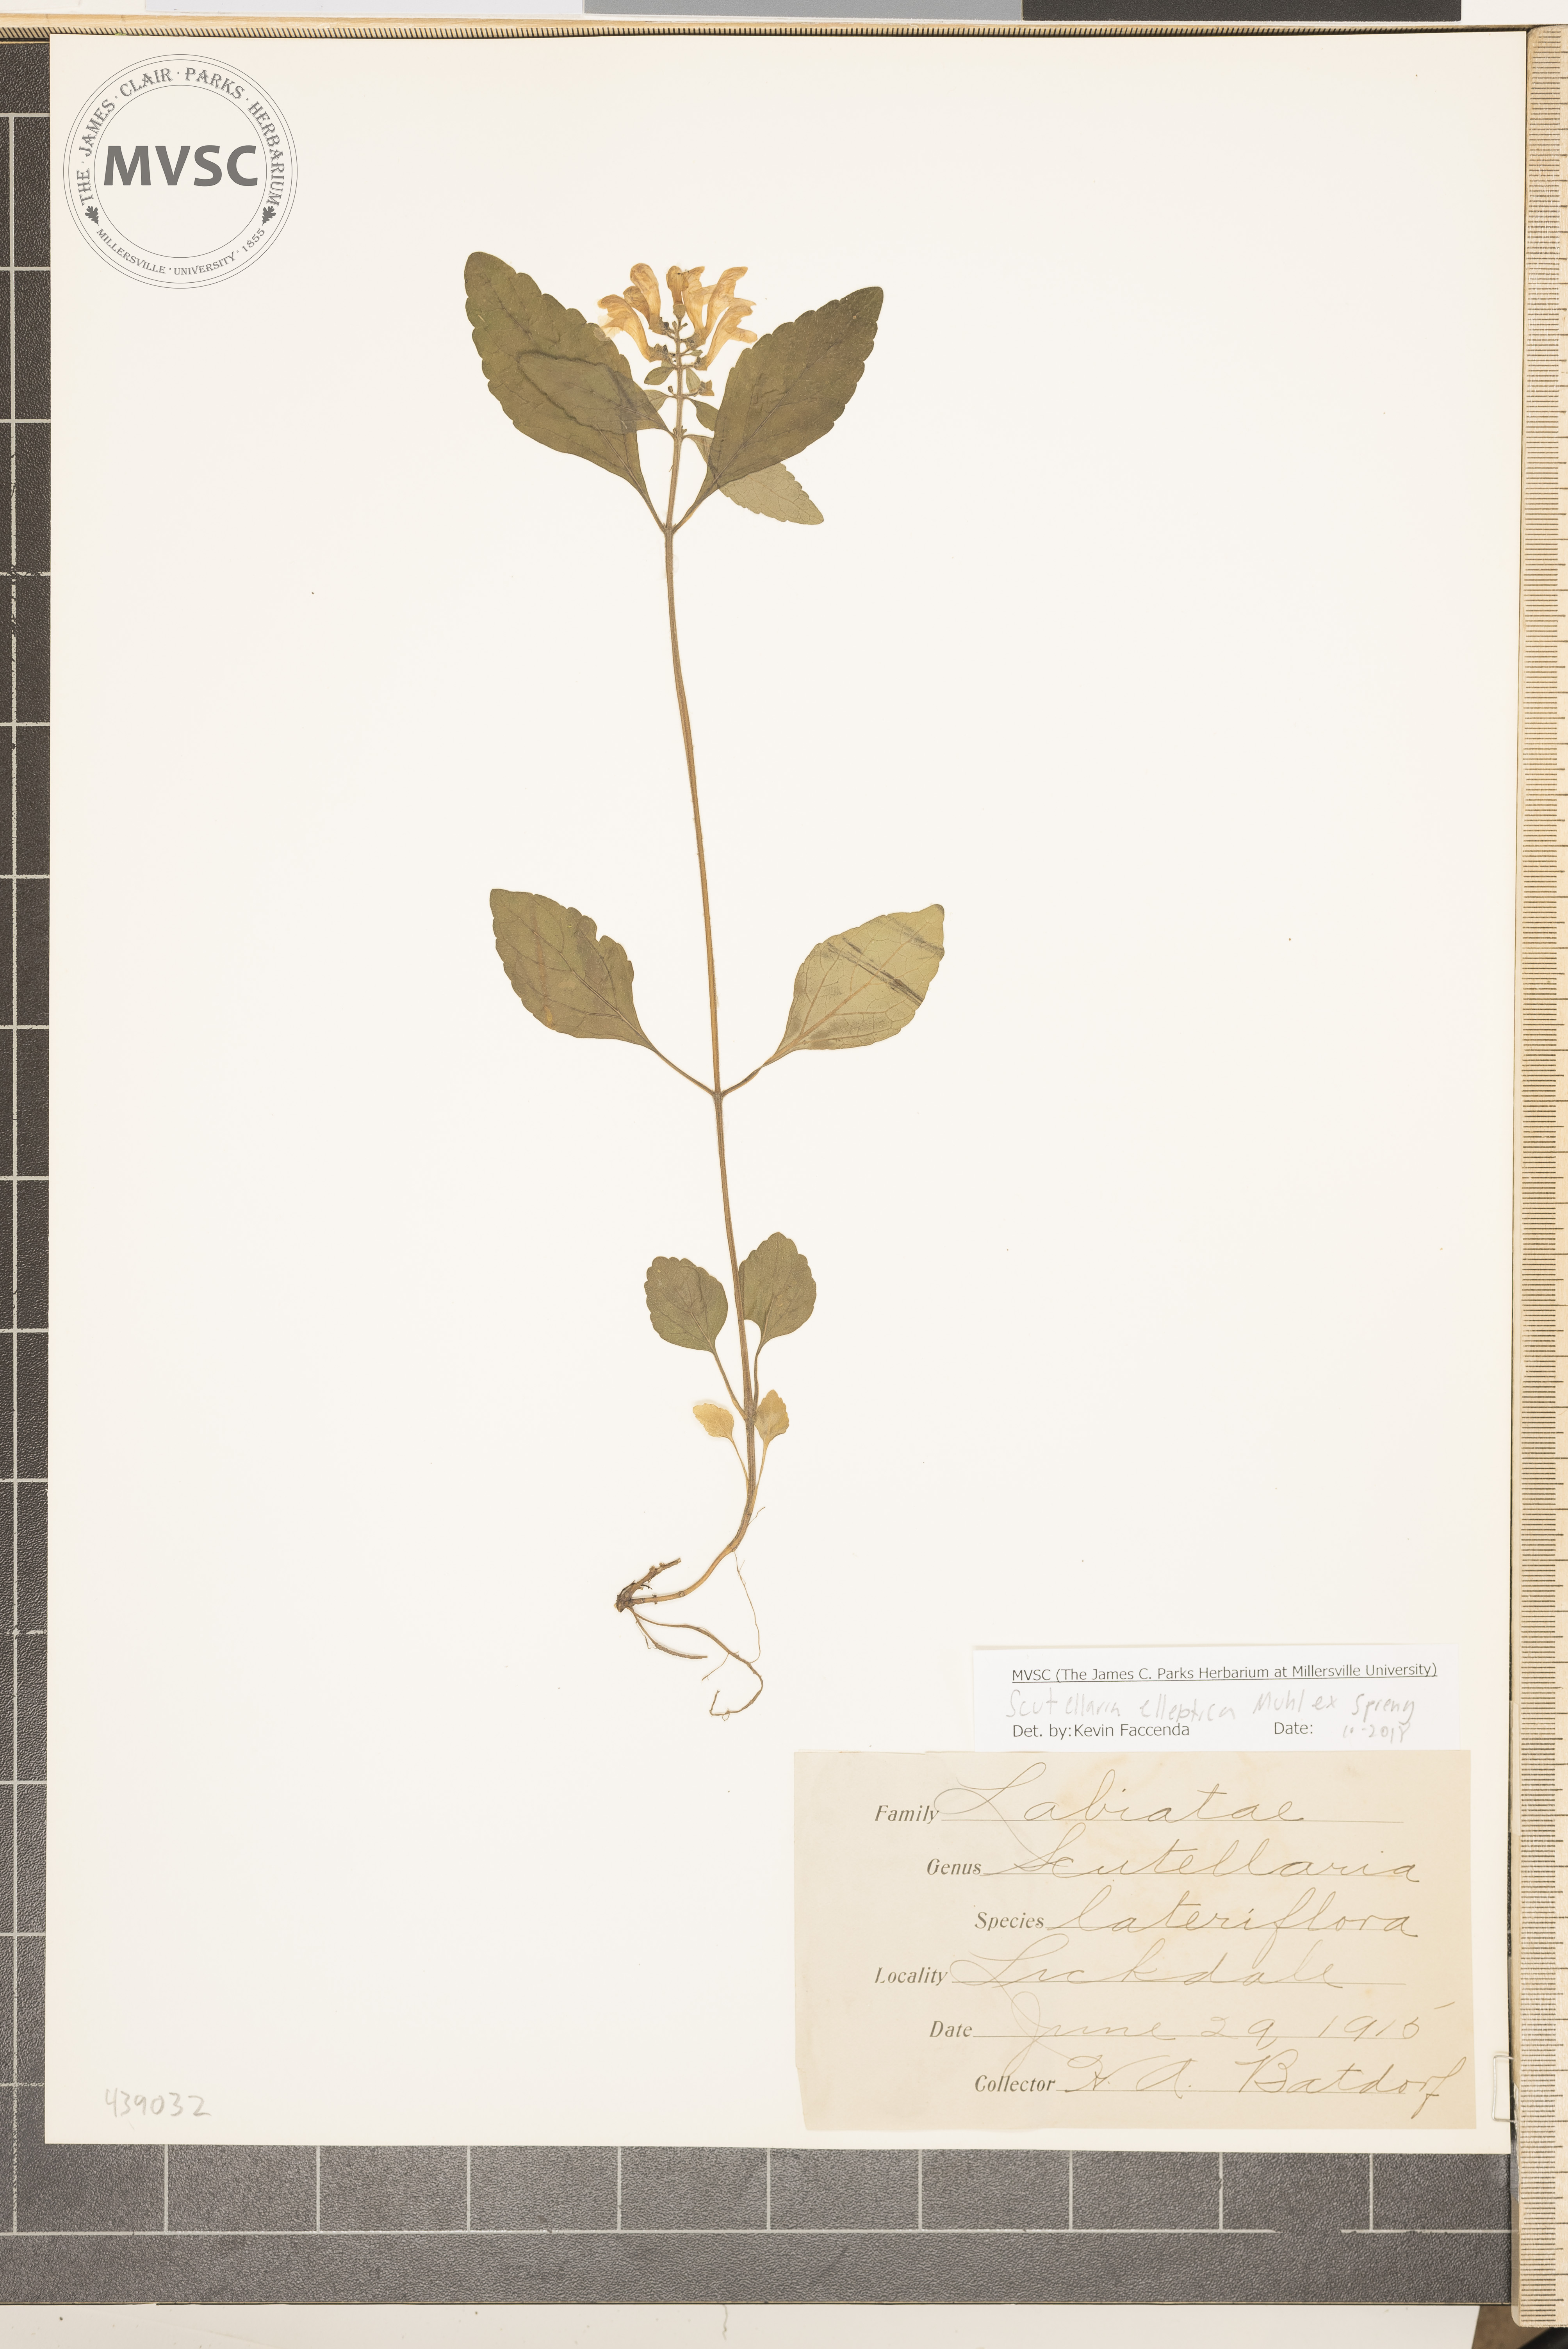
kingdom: Plantae
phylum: Tracheophyta
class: Magnoliopsida
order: Lamiales
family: Lamiaceae
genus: Scutellaria
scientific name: Scutellaria elliptica
